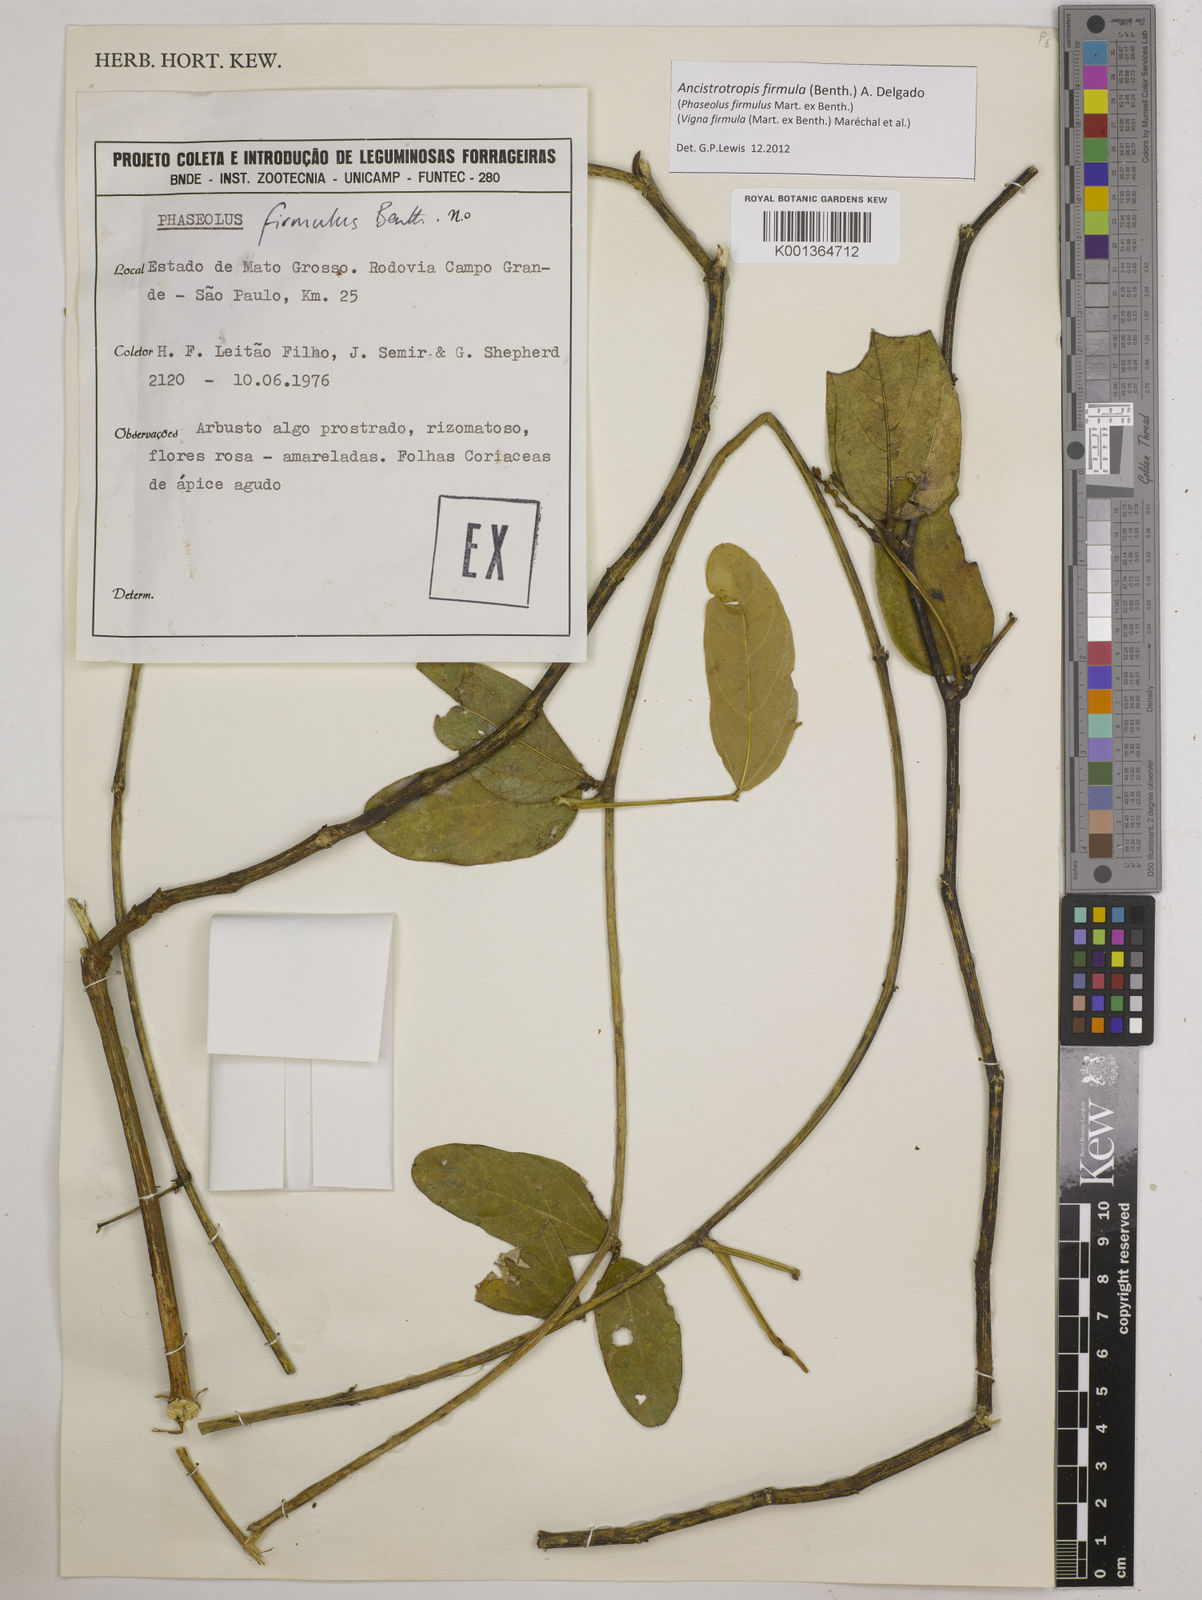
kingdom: Plantae
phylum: Tracheophyta
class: Magnoliopsida
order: Fabales
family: Fabaceae
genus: Ancistrotropis
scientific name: Ancistrotropis firmula
